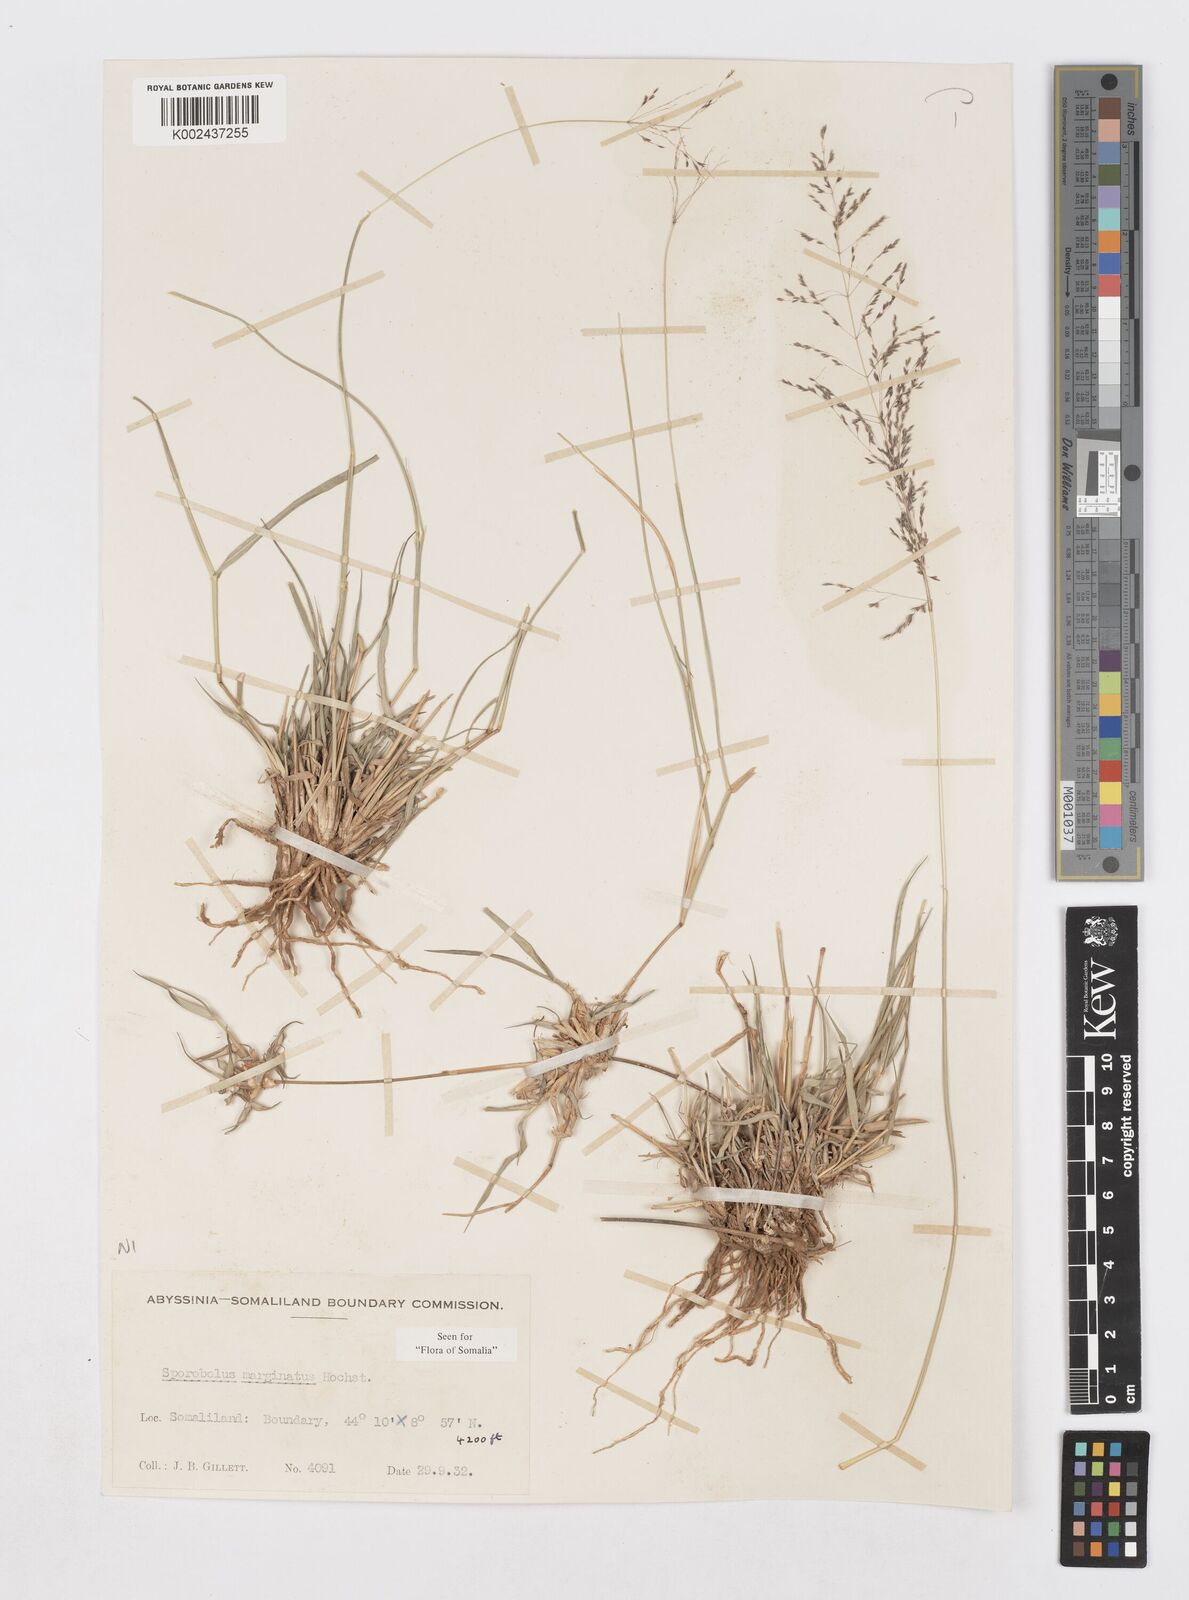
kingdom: Plantae
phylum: Tracheophyta
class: Liliopsida
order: Poales
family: Poaceae
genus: Sporobolus
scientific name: Sporobolus ioclados
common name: Pan dropseed
